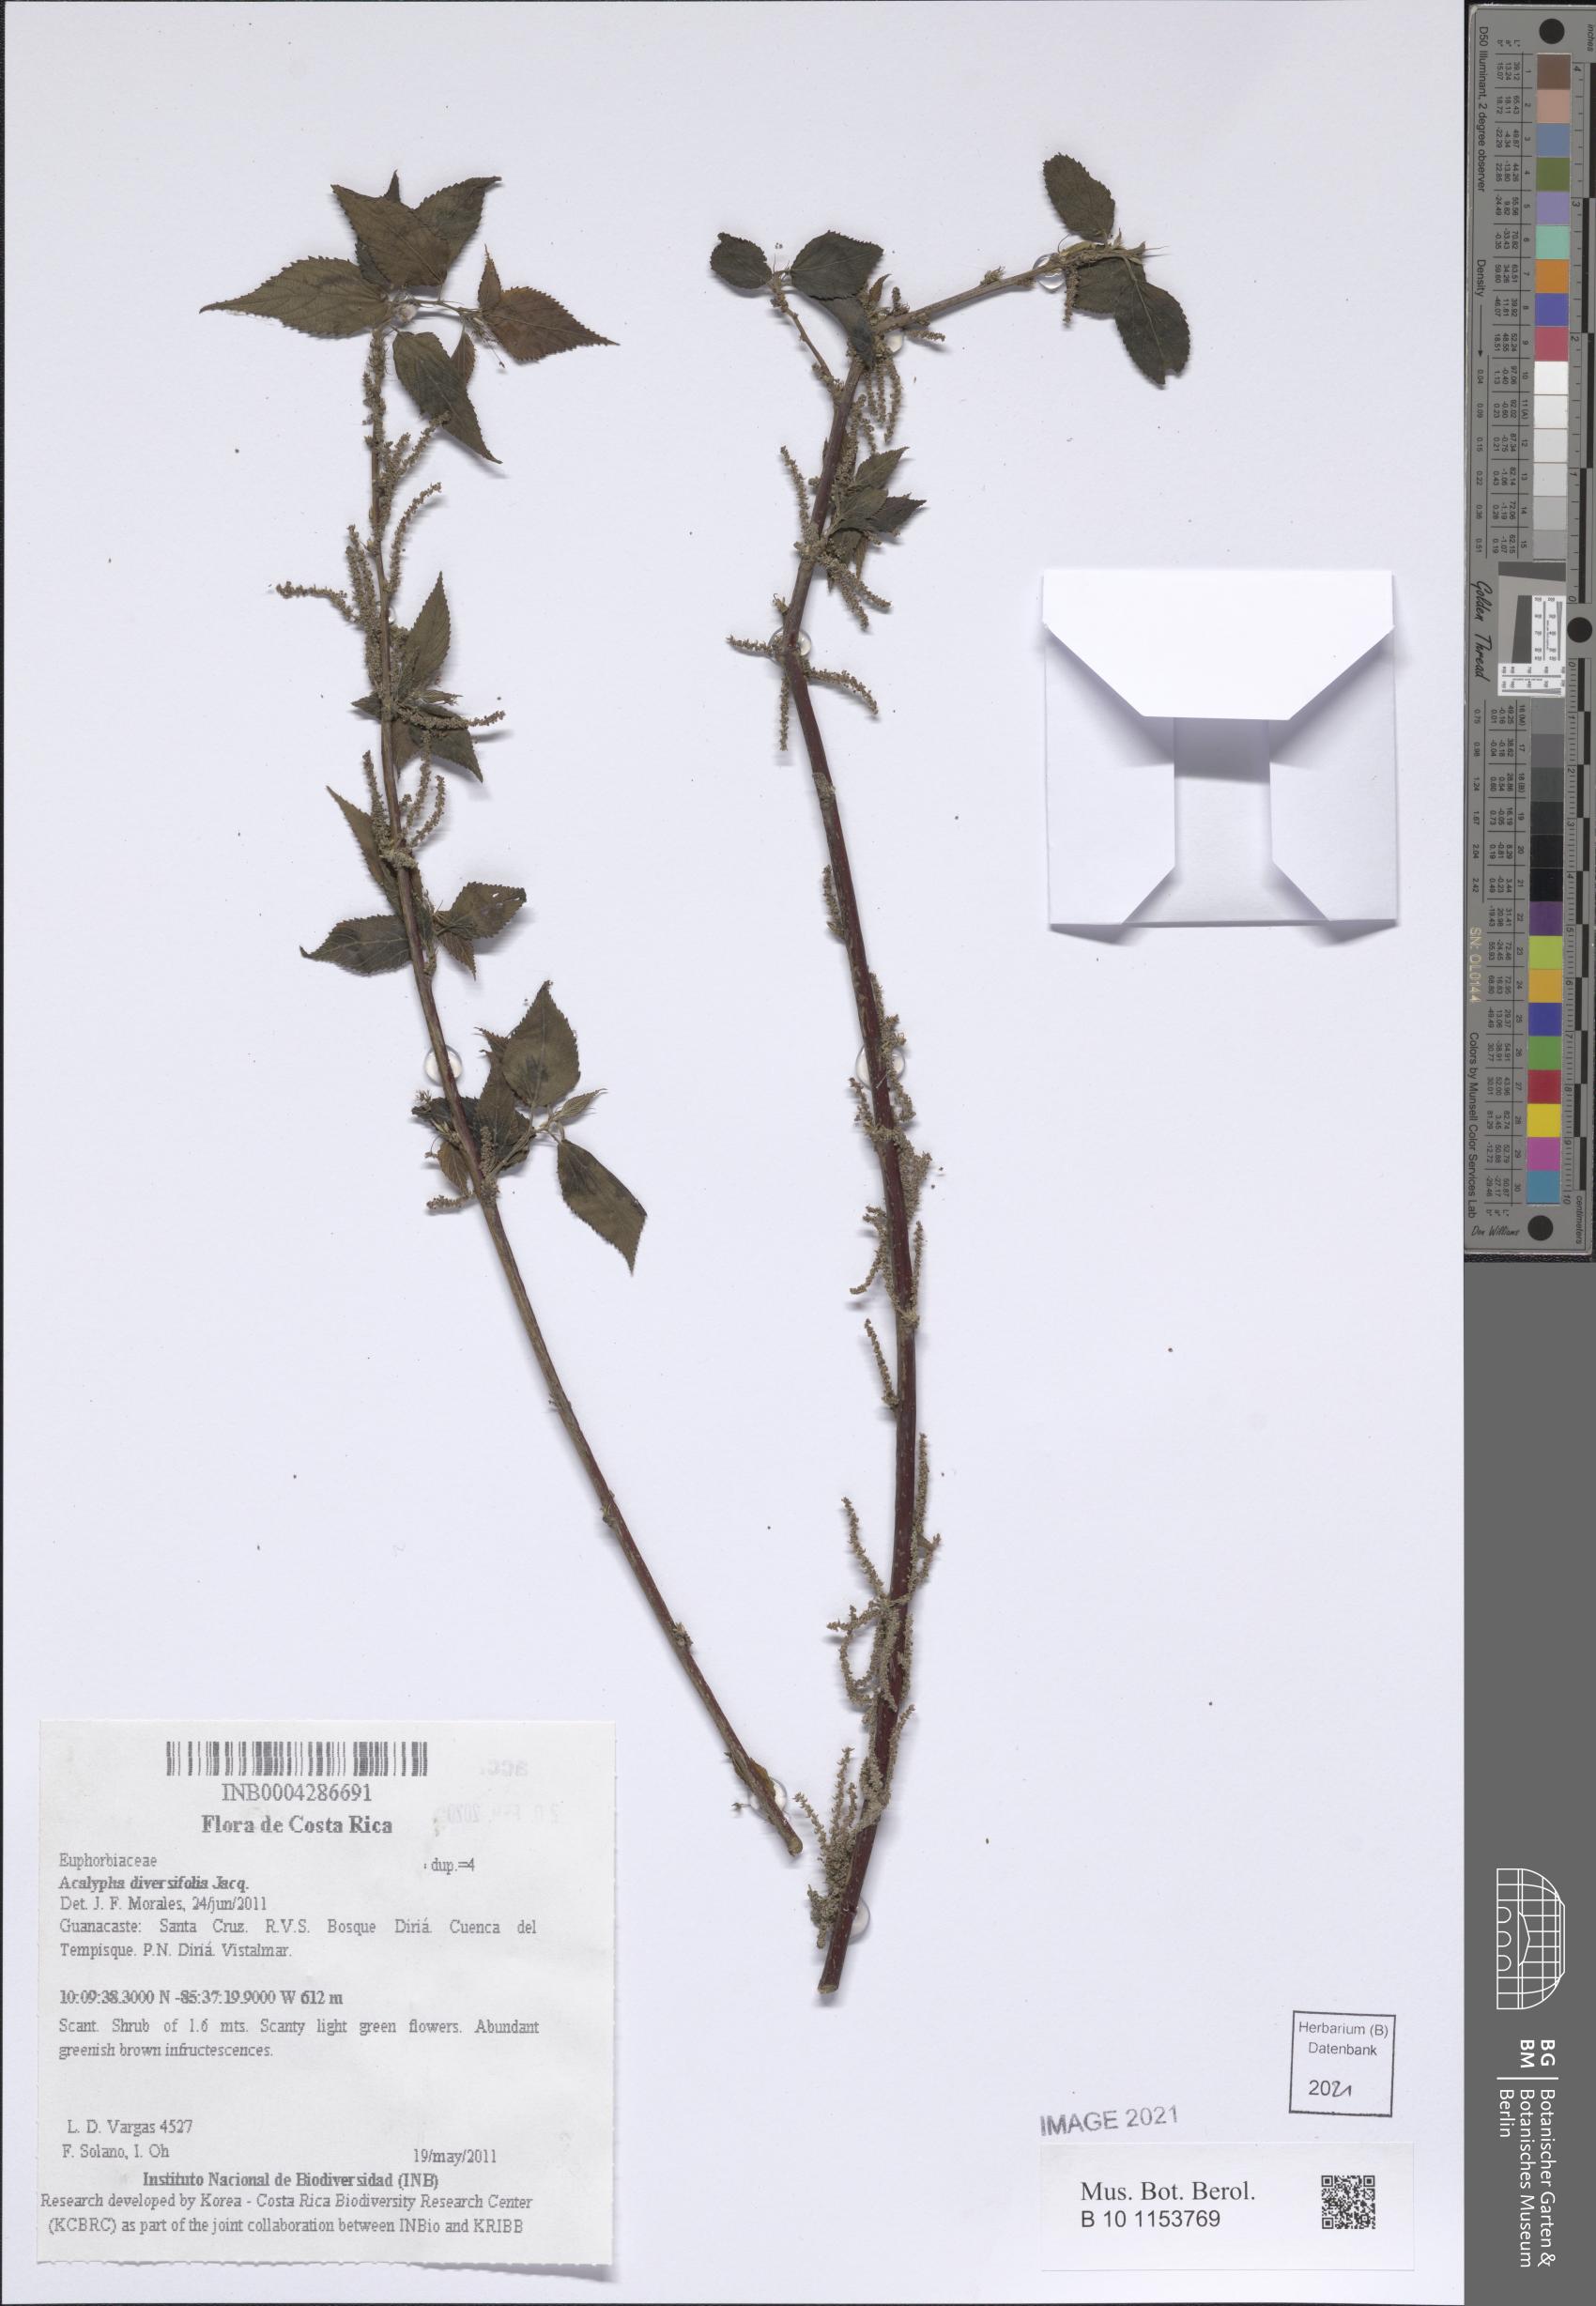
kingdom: Plantae
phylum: Tracheophyta
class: Magnoliopsida
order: Malpighiales
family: Euphorbiaceae
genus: Acalypha
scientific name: Acalypha diversifolia
